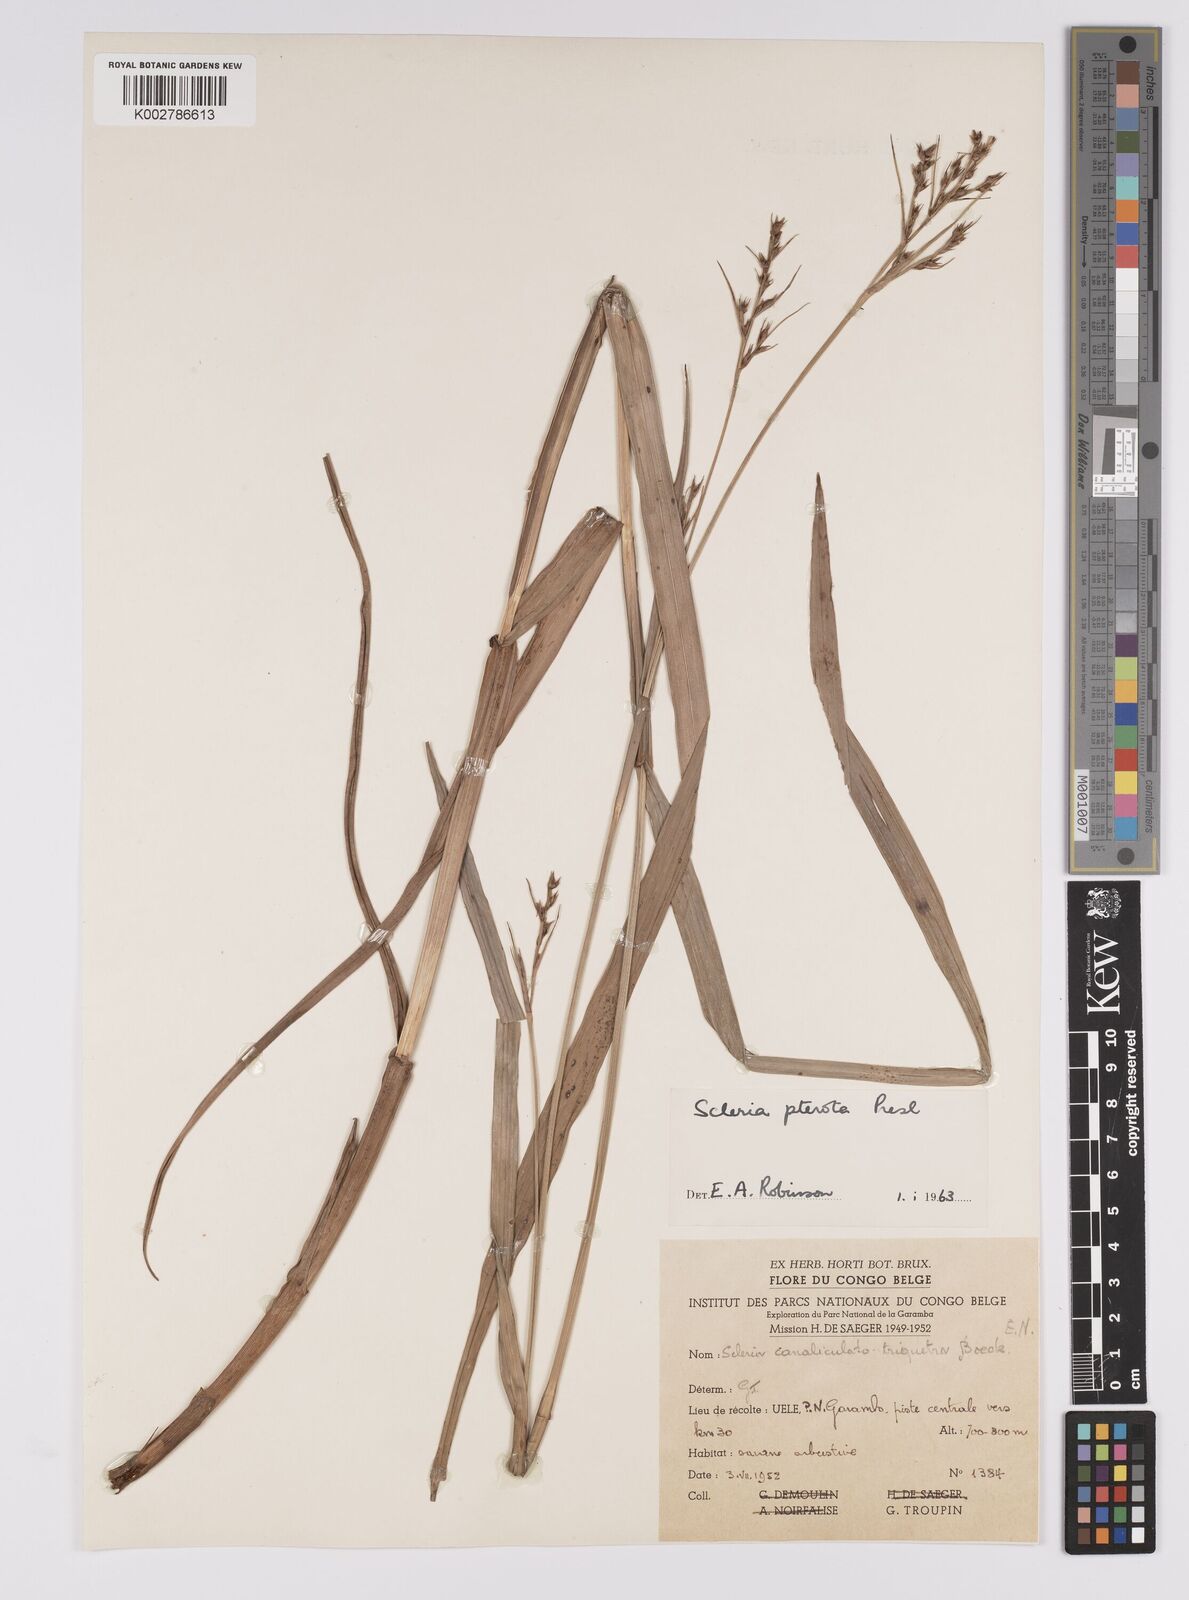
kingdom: Plantae
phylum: Tracheophyta
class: Liliopsida
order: Poales
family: Cyperaceae
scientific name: Cyperaceae
